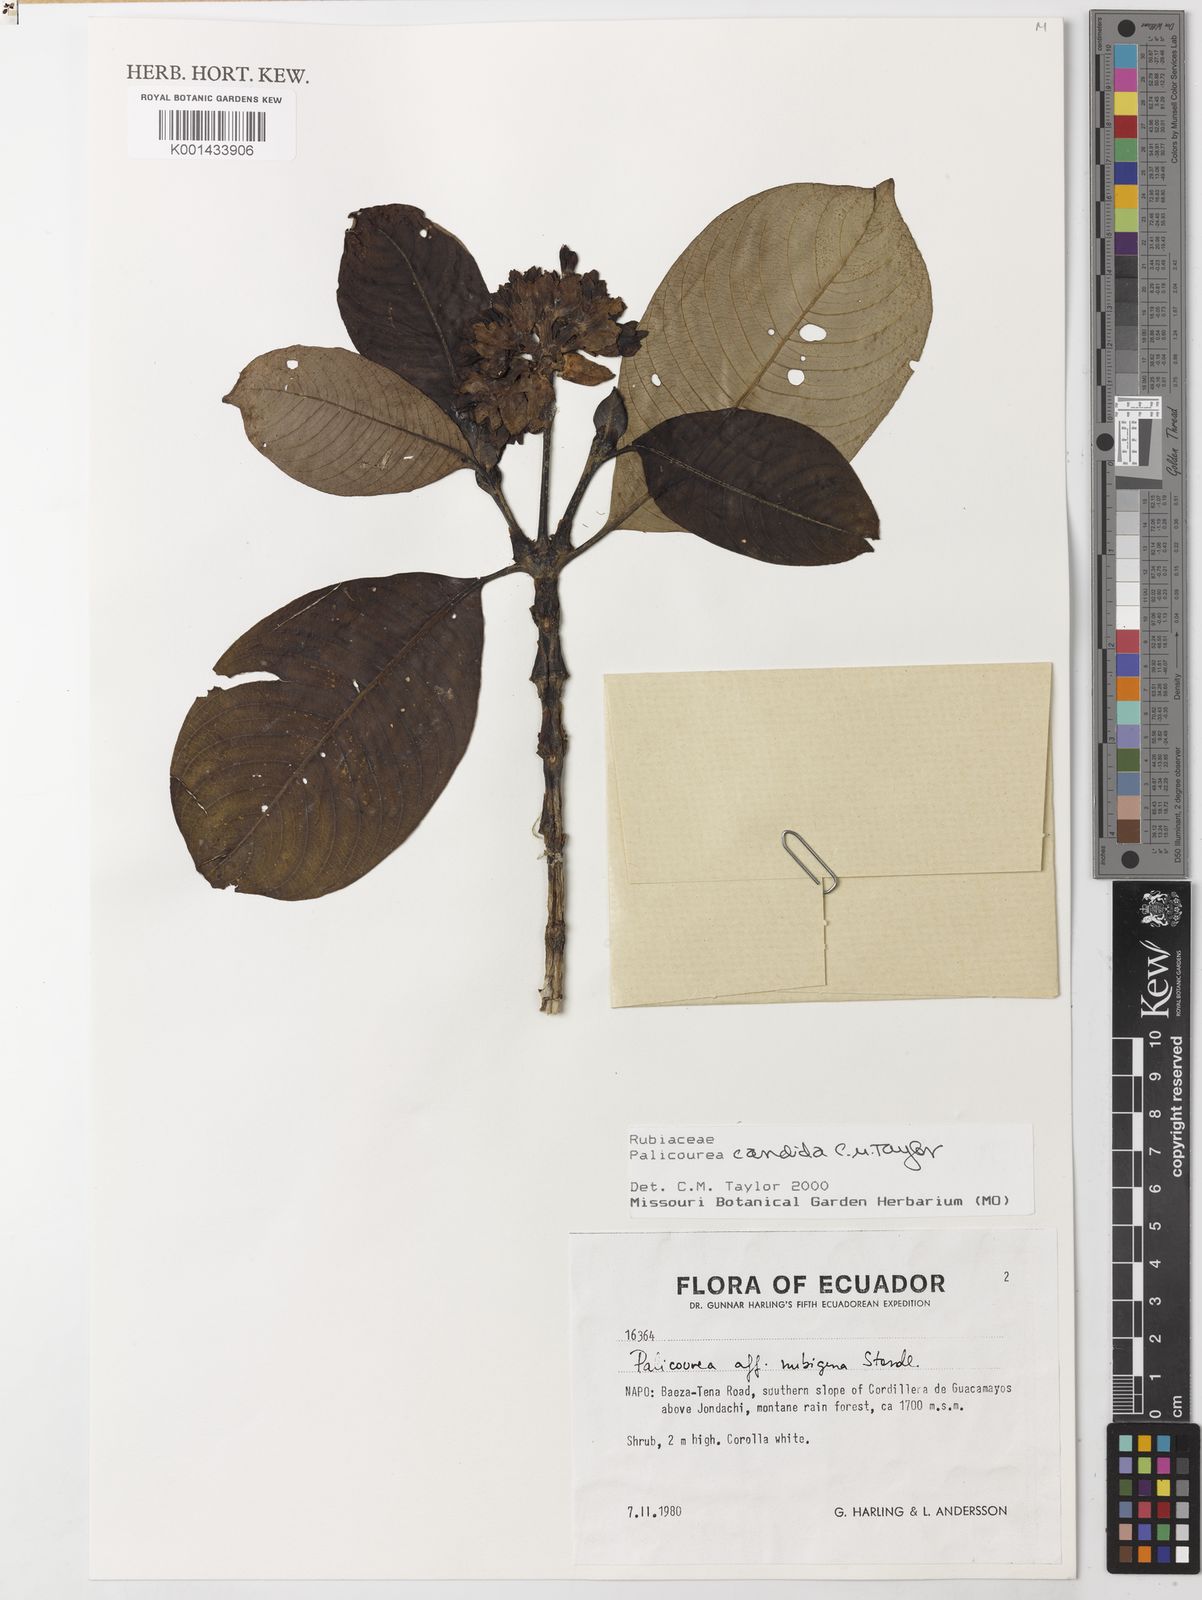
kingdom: Plantae
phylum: Tracheophyta
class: Magnoliopsida
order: Gentianales
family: Rubiaceae
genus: Palicourea
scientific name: Palicourea candida
